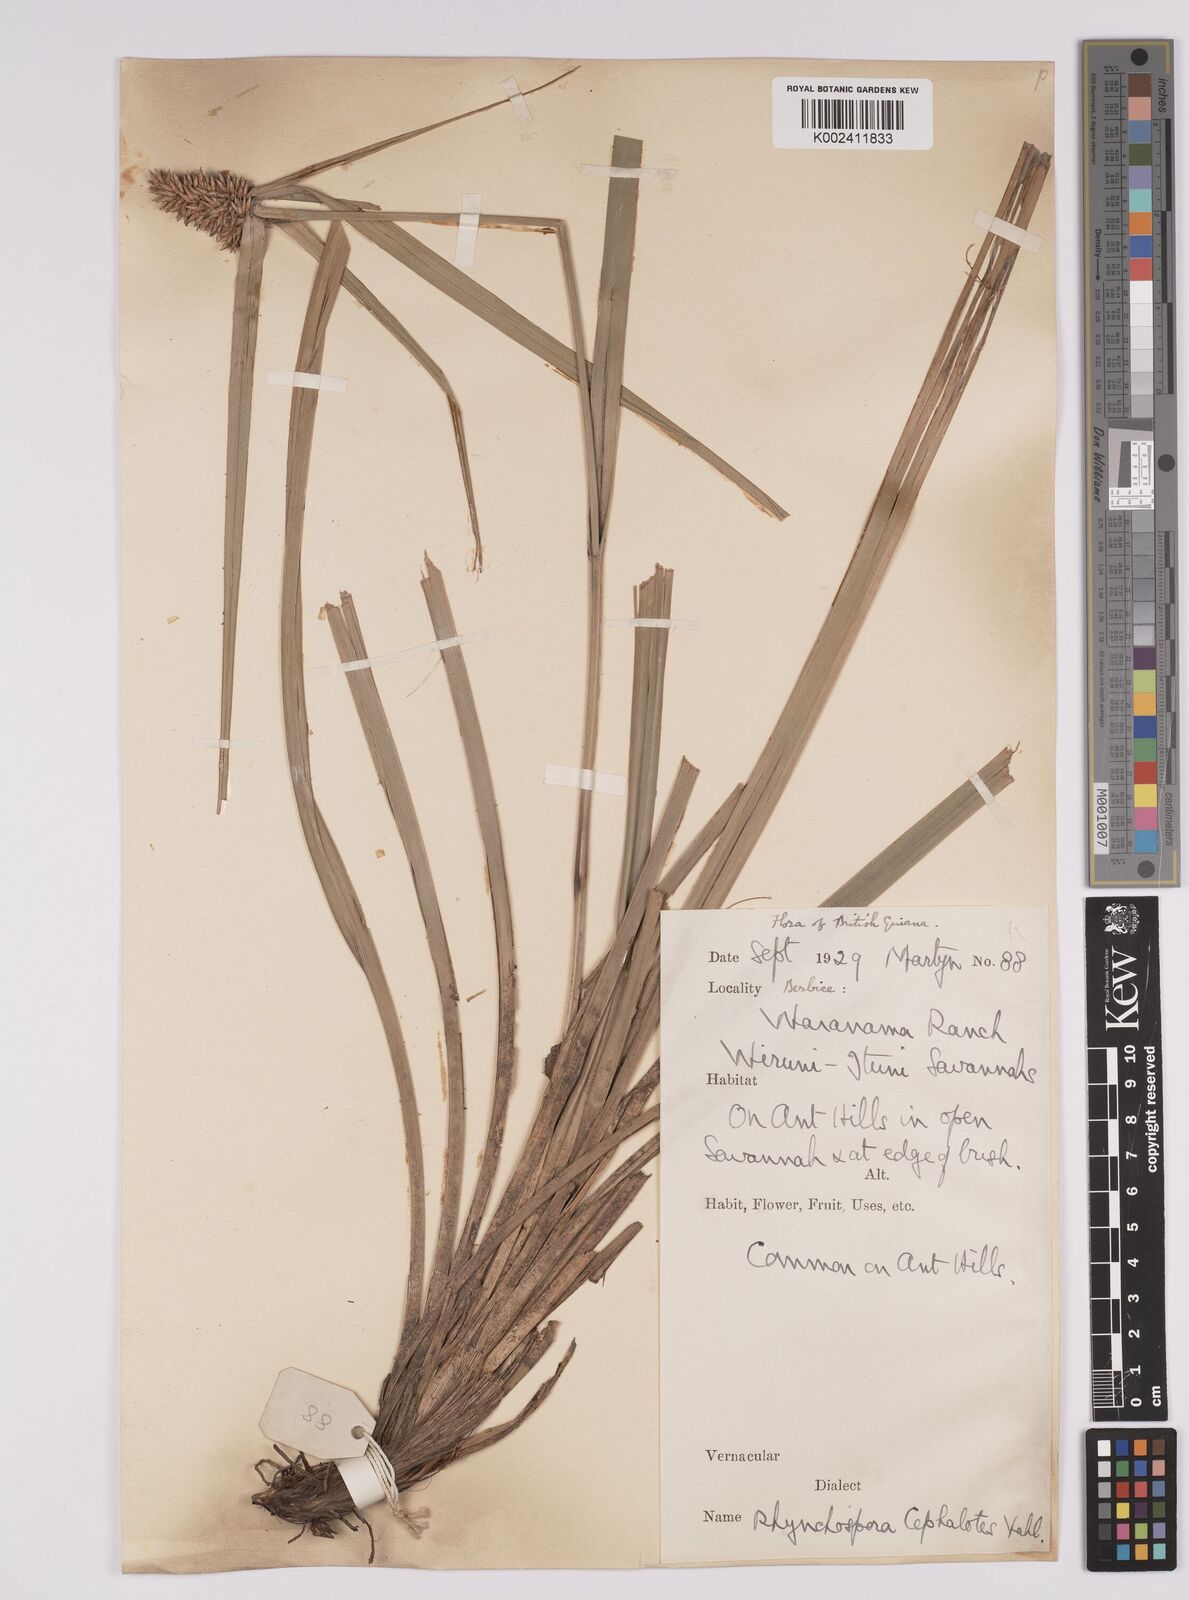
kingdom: Plantae
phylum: Tracheophyta
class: Liliopsida
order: Poales
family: Cyperaceae
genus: Rhynchospora
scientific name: Rhynchospora cephalotes
